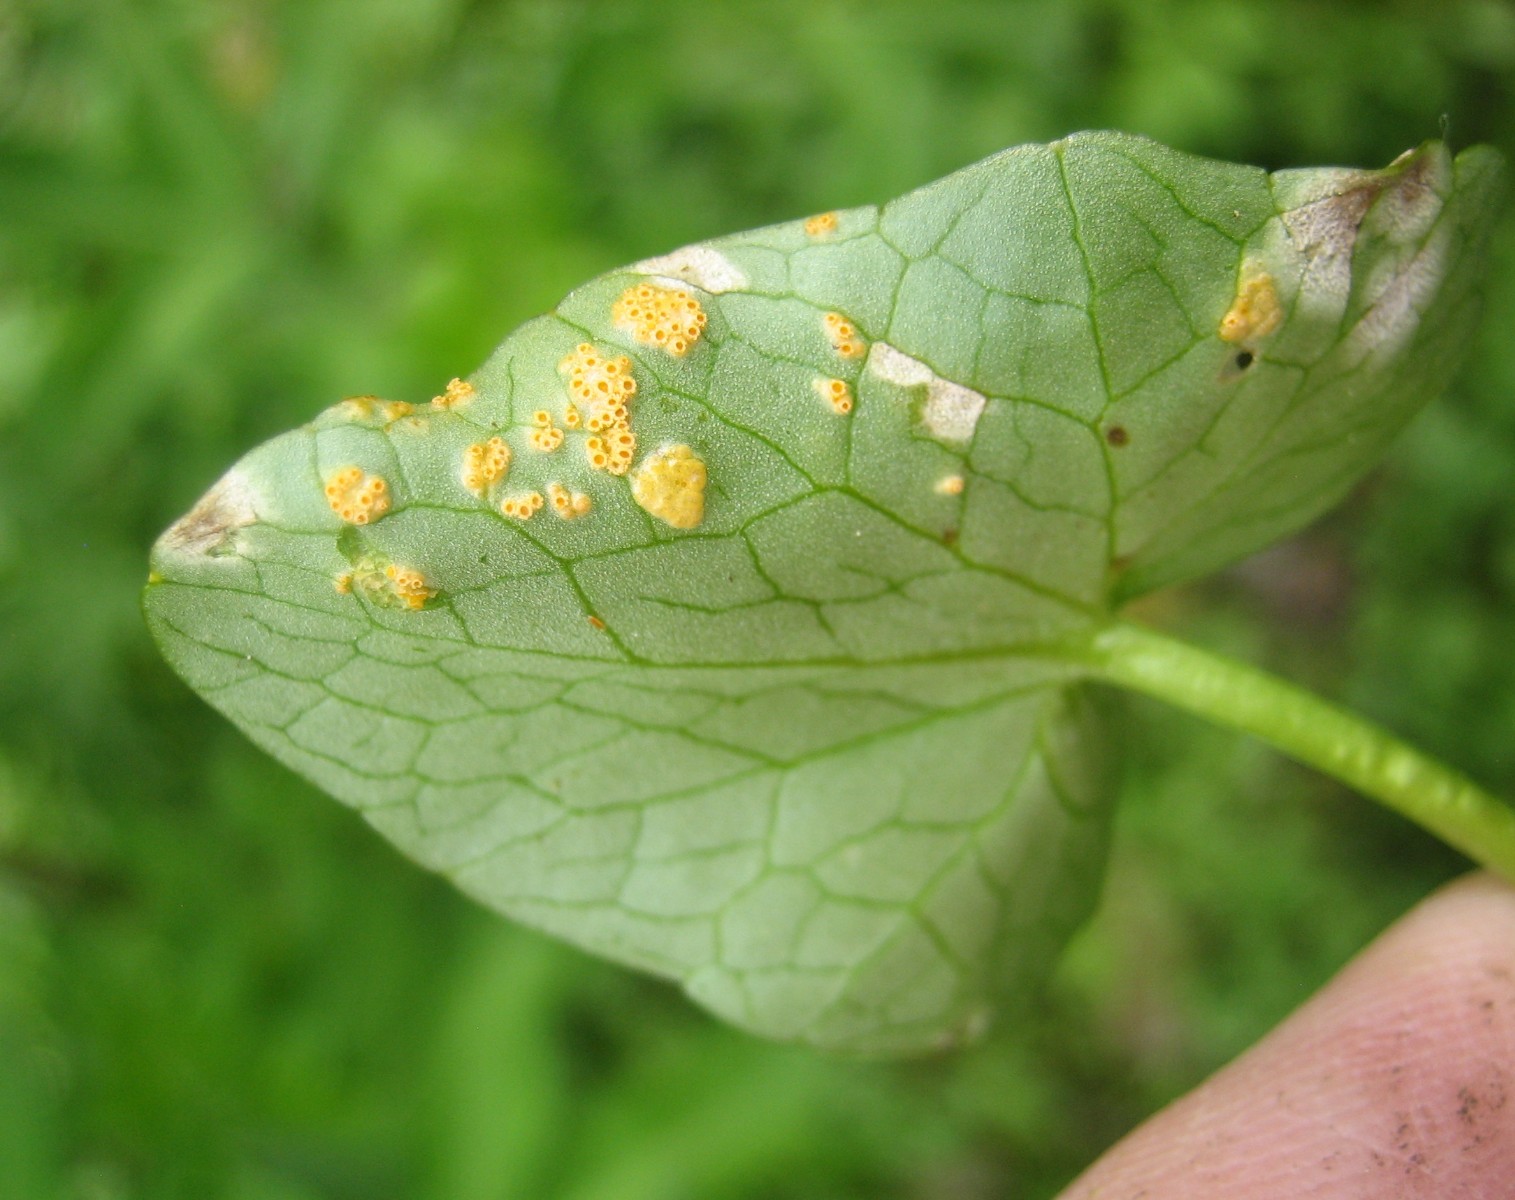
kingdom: Fungi
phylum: Basidiomycota
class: Pucciniomycetes
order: Pucciniales
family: Pucciniaceae
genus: Uromyces
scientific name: Uromyces dactylidis
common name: ranunkel-encellerust
